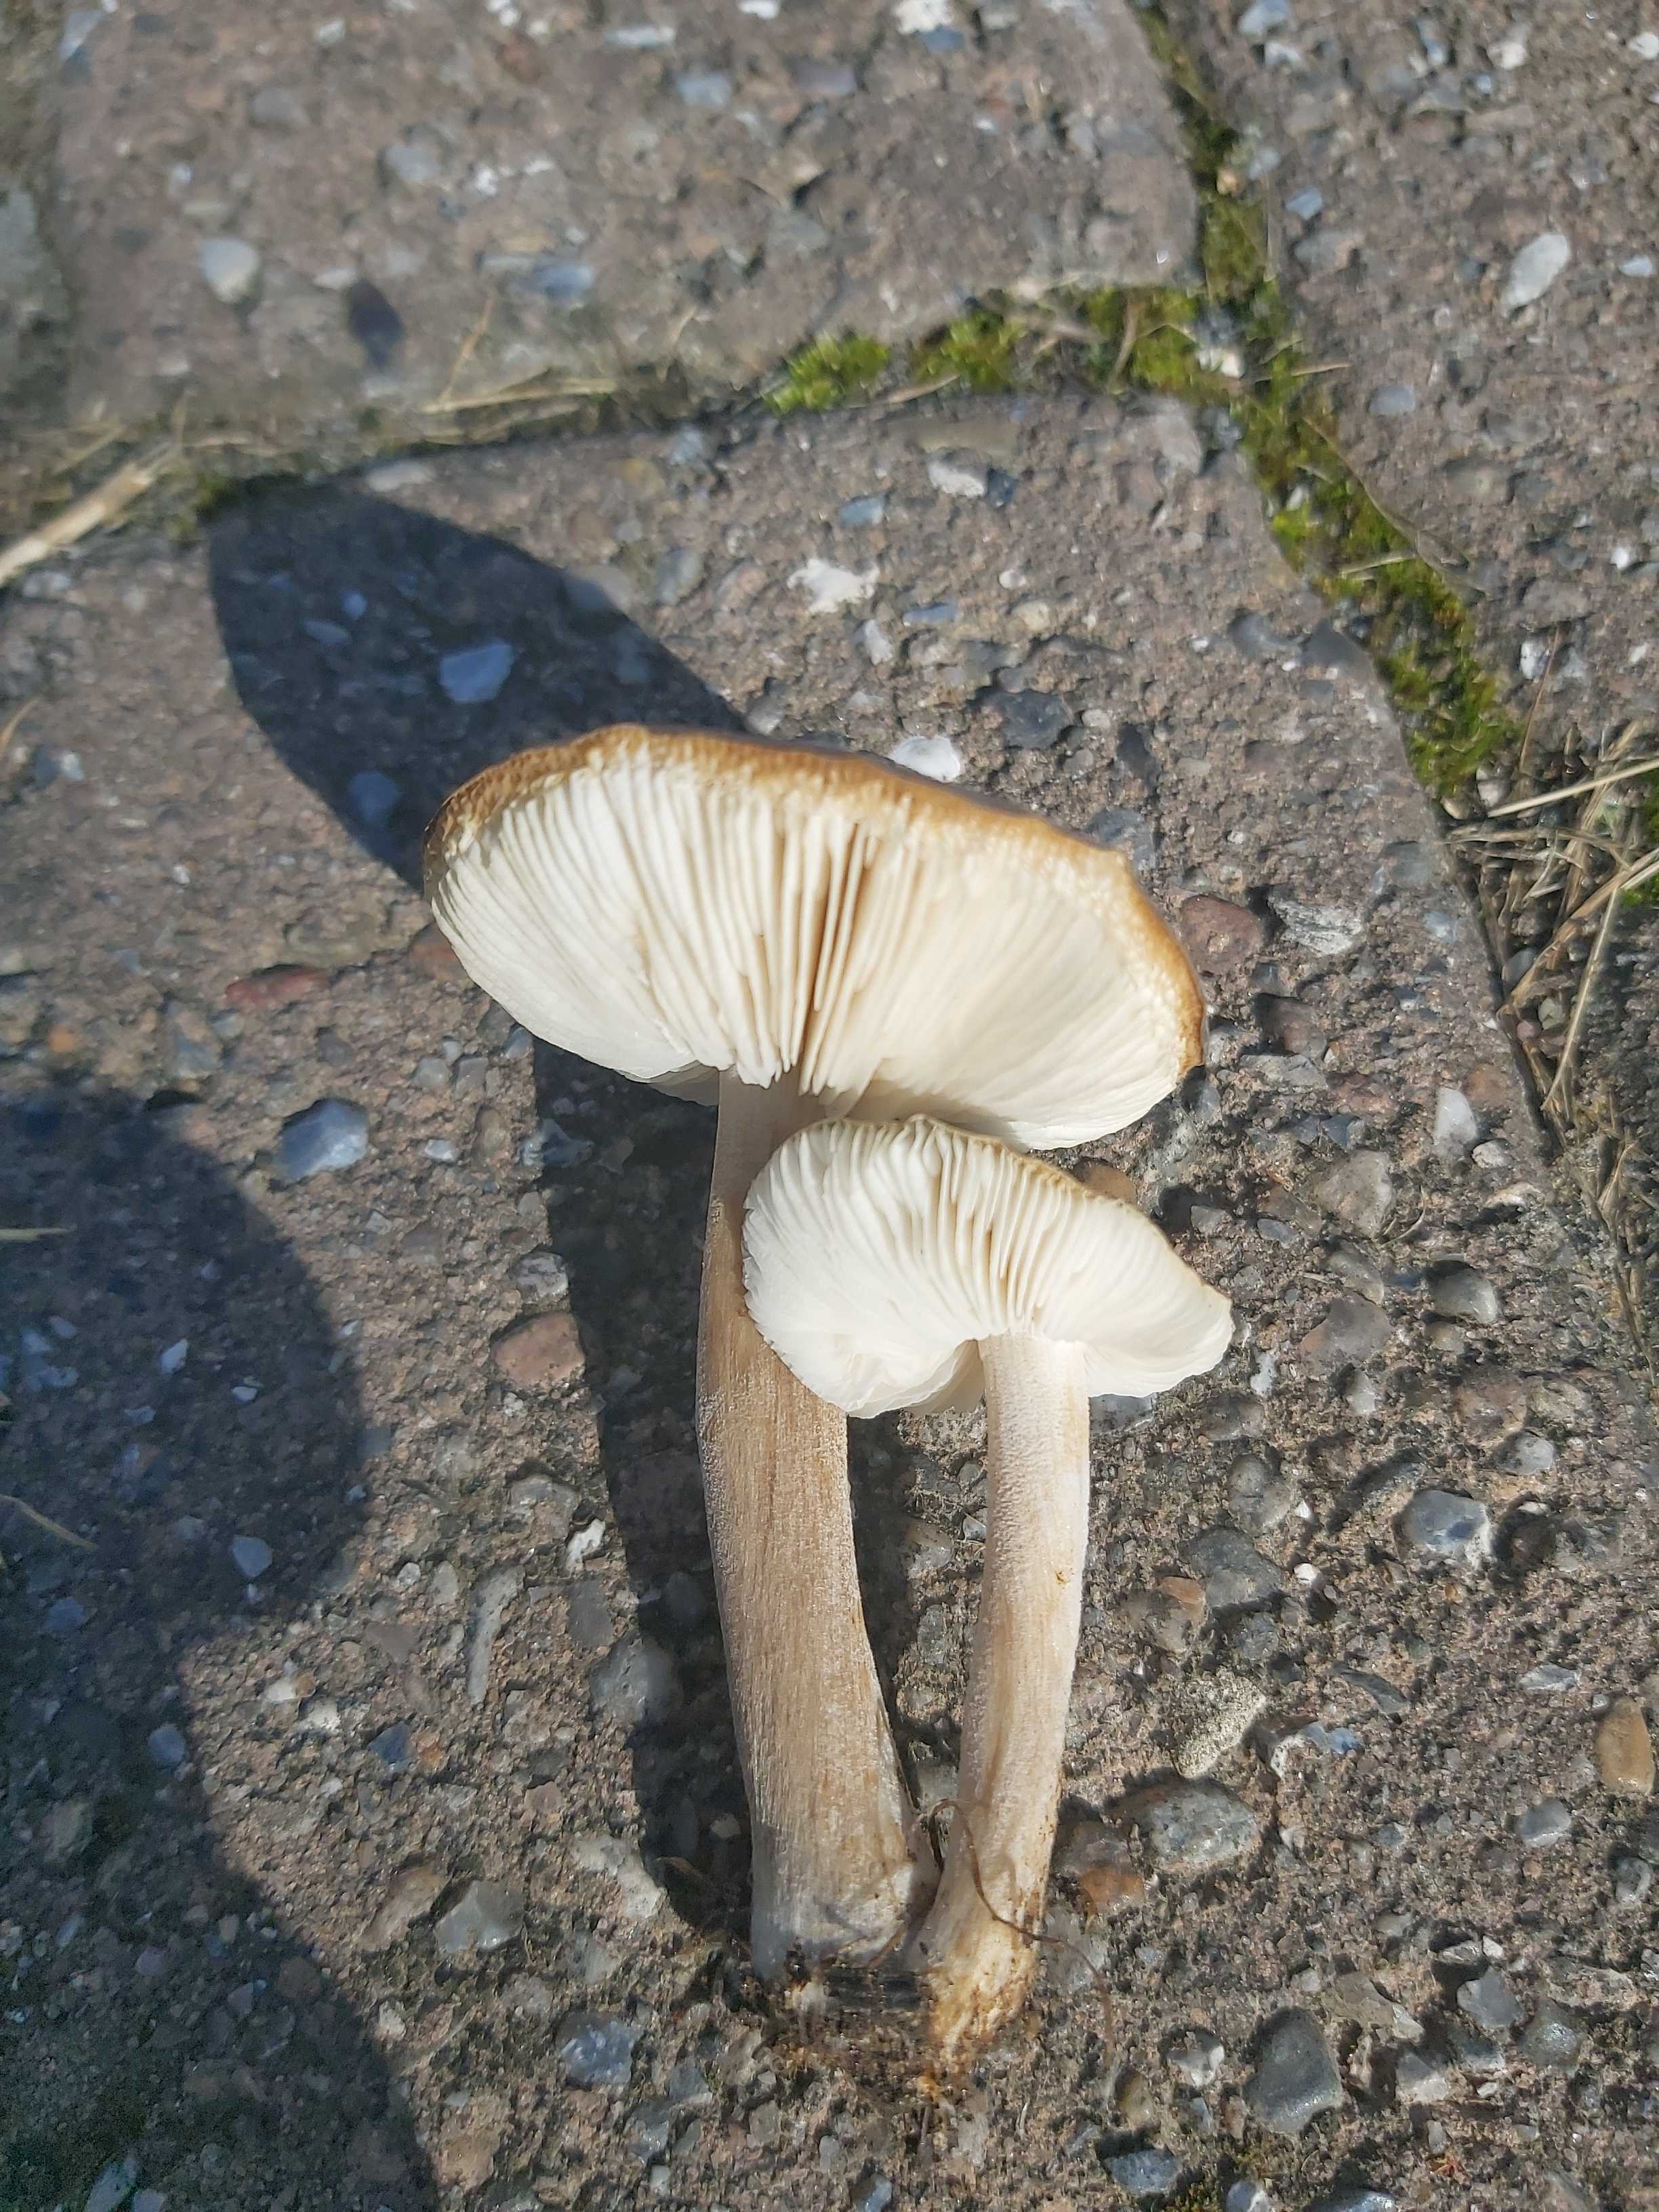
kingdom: Fungi
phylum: Basidiomycota
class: Agaricomycetes
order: Agaricales
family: Tricholomataceae
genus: Melanoleuca
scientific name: Melanoleuca
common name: munkehat
